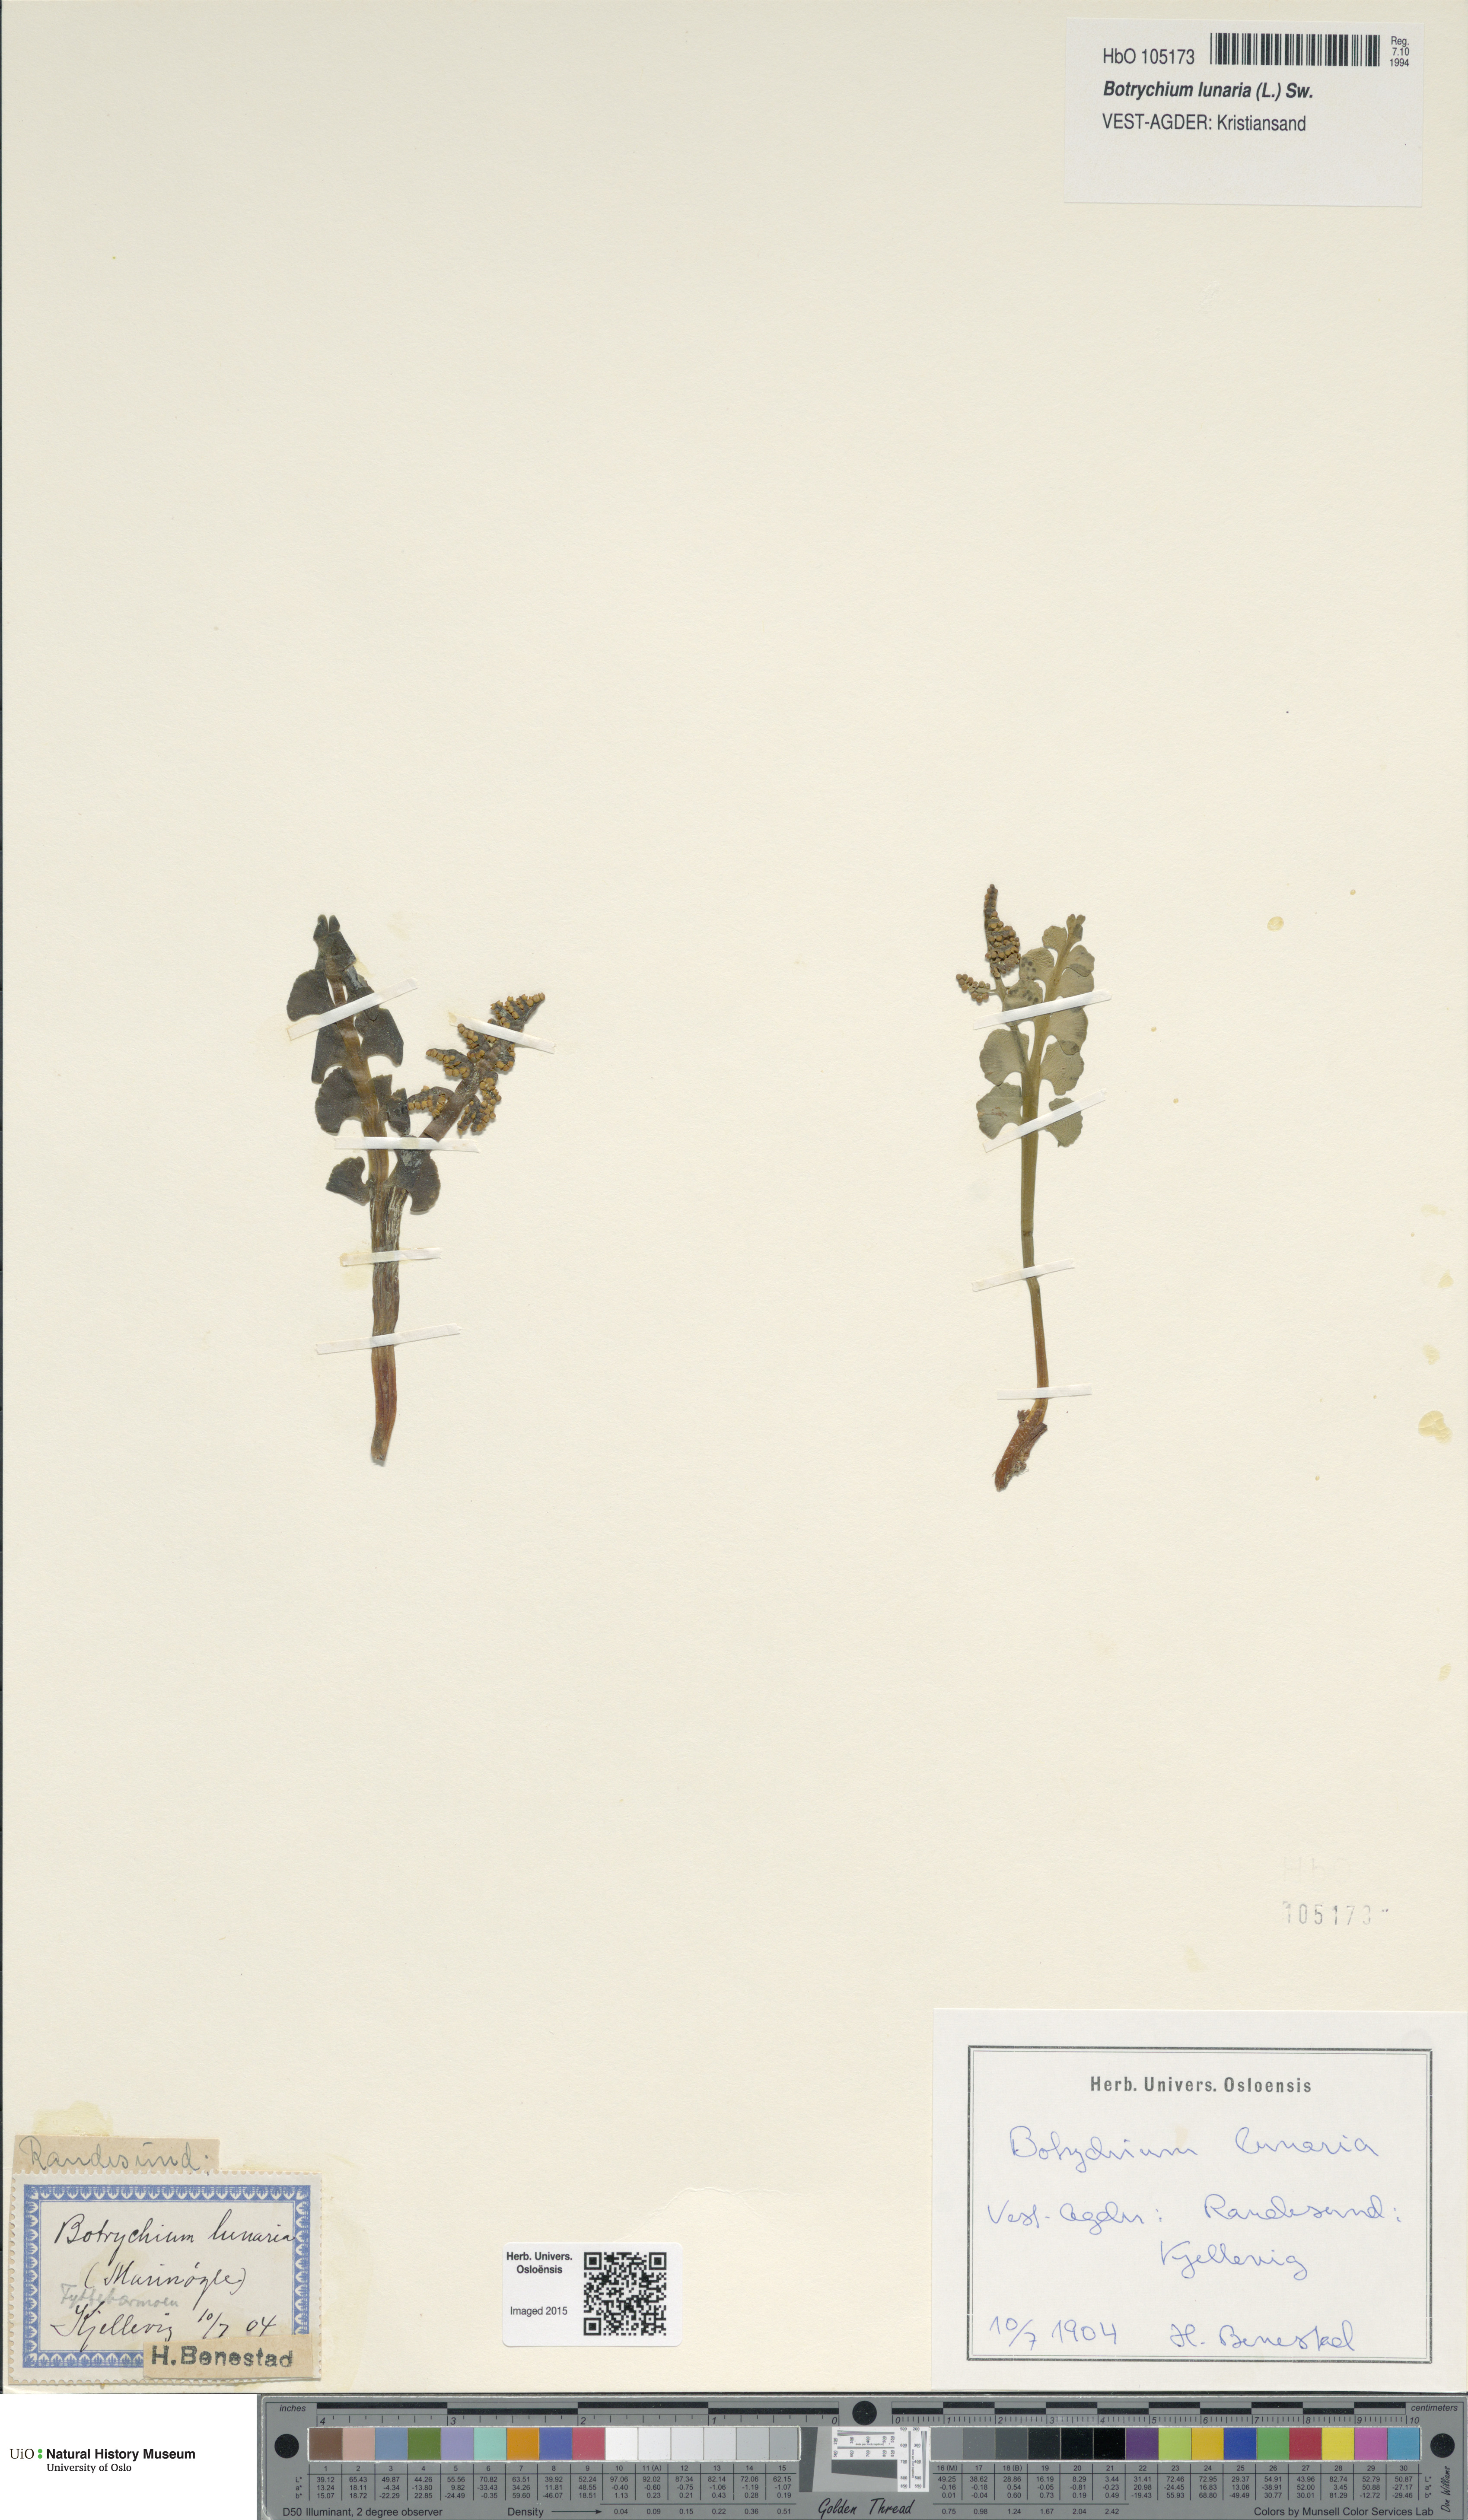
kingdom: Plantae
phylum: Tracheophyta
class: Polypodiopsida
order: Ophioglossales
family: Ophioglossaceae
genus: Botrychium
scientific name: Botrychium lunaria
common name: Moonwort
